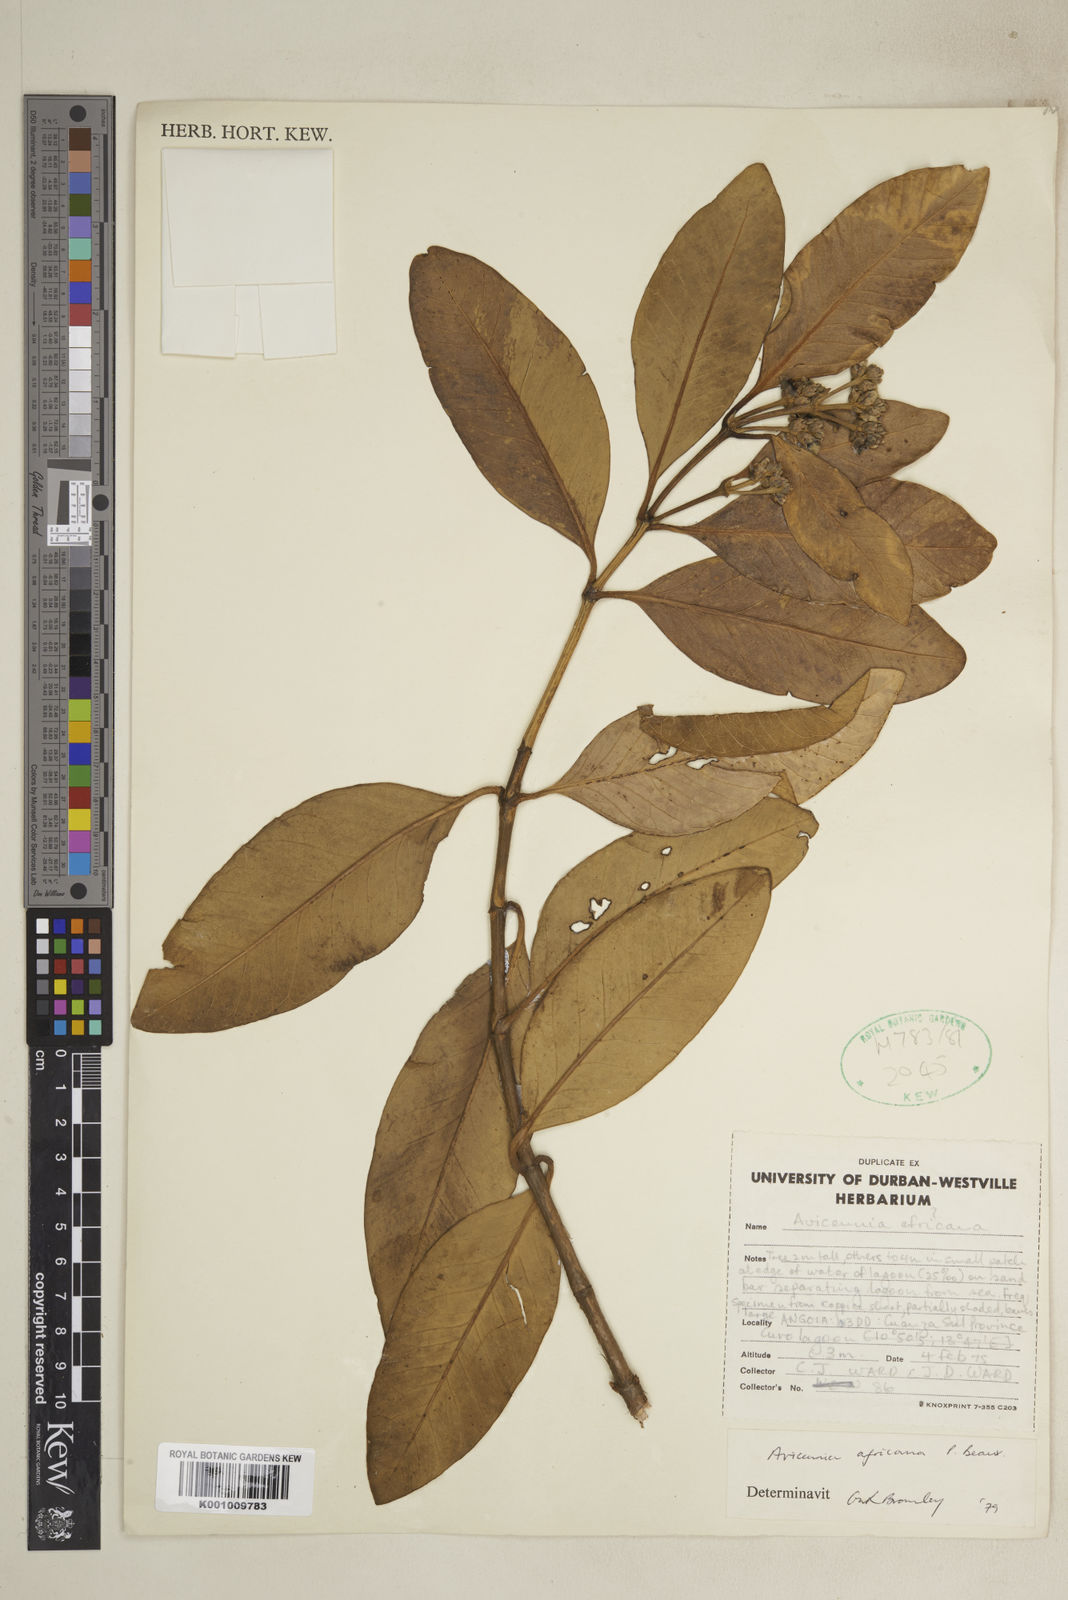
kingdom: Plantae
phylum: Tracheophyta
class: Magnoliopsida
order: Lamiales
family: Acanthaceae
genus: Avicennia
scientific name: Avicennia germinans
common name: Black mangrove
